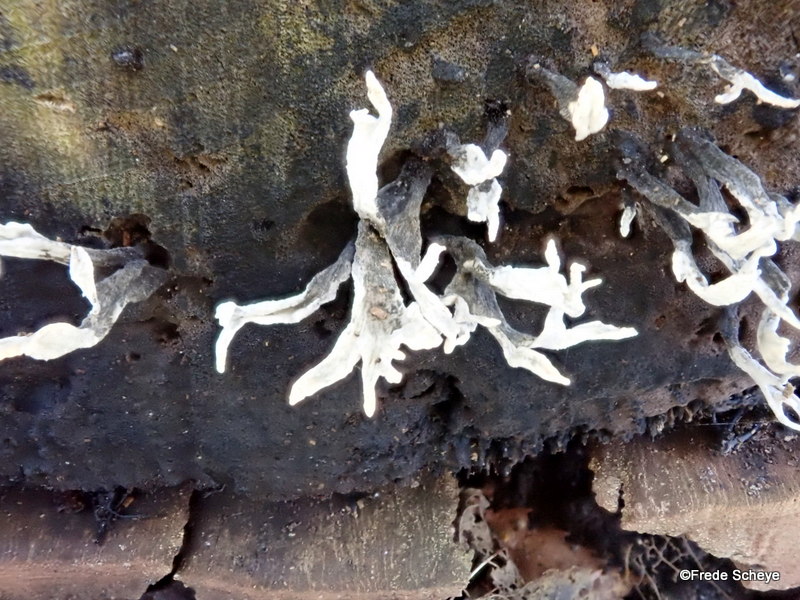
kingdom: Fungi
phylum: Ascomycota
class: Sordariomycetes
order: Xylariales
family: Xylariaceae
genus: Xylaria
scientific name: Xylaria hypoxylon
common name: grenet stødsvamp
